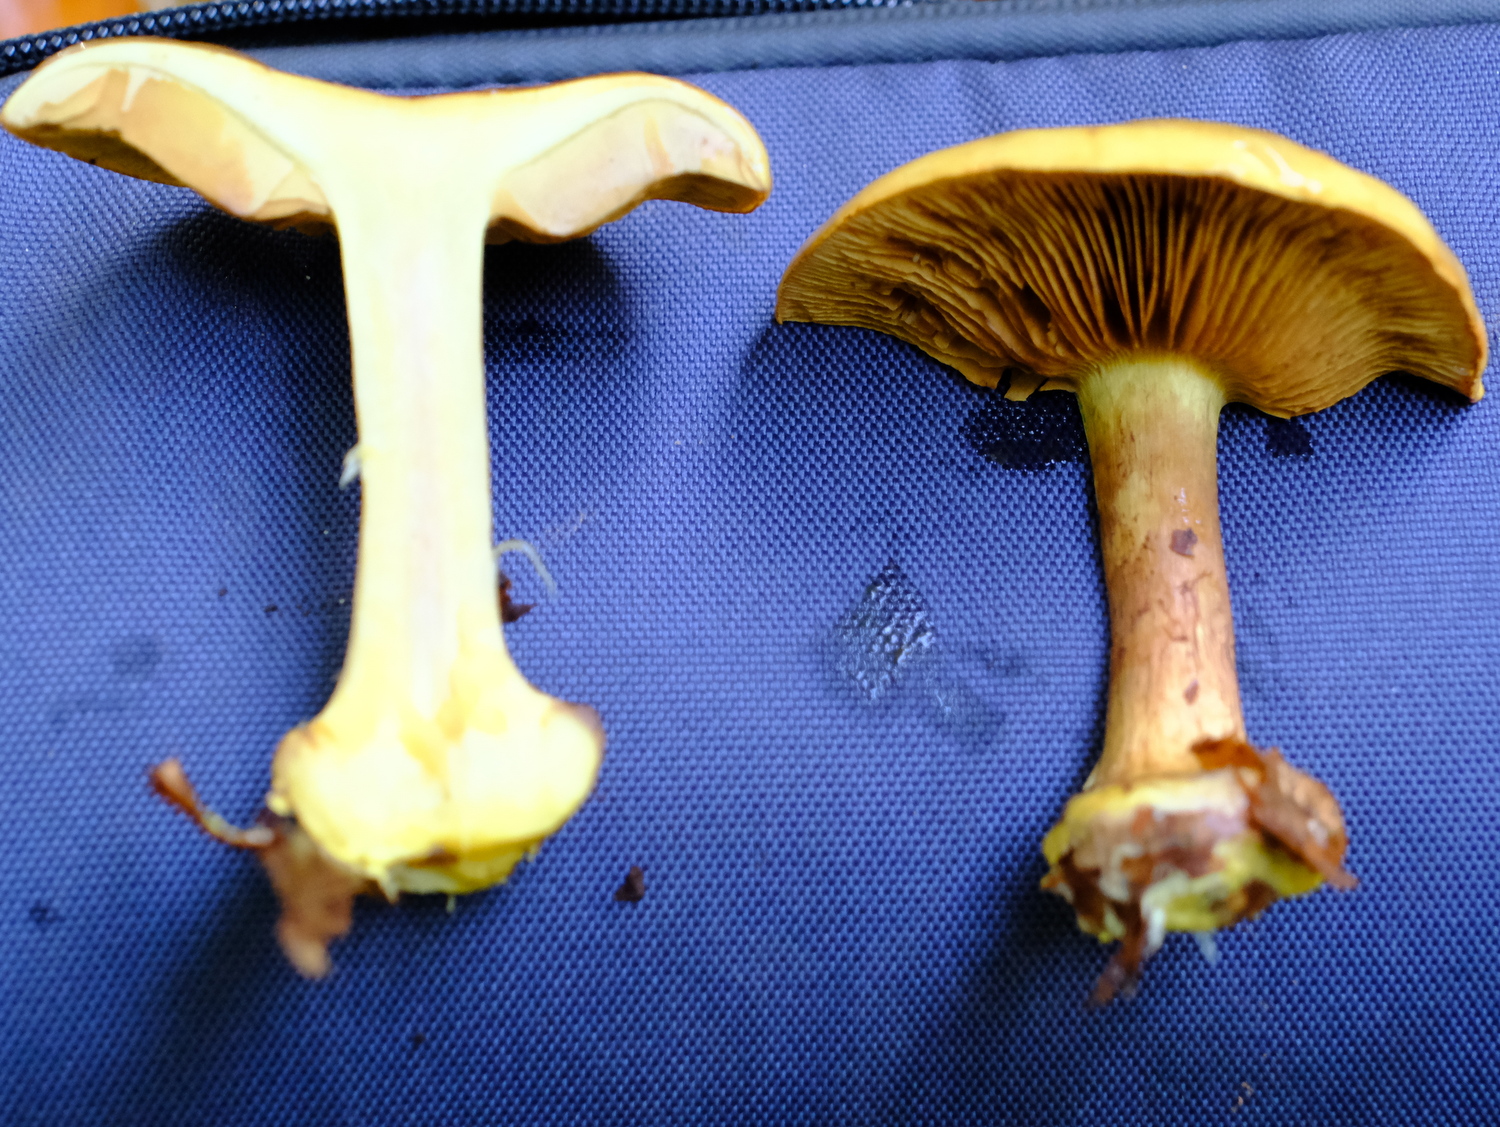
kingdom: Fungi
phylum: Basidiomycota
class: Agaricomycetes
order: Agaricales
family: Cortinariaceae
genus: Calonarius
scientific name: Calonarius citrinus
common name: citrongul slørhat
